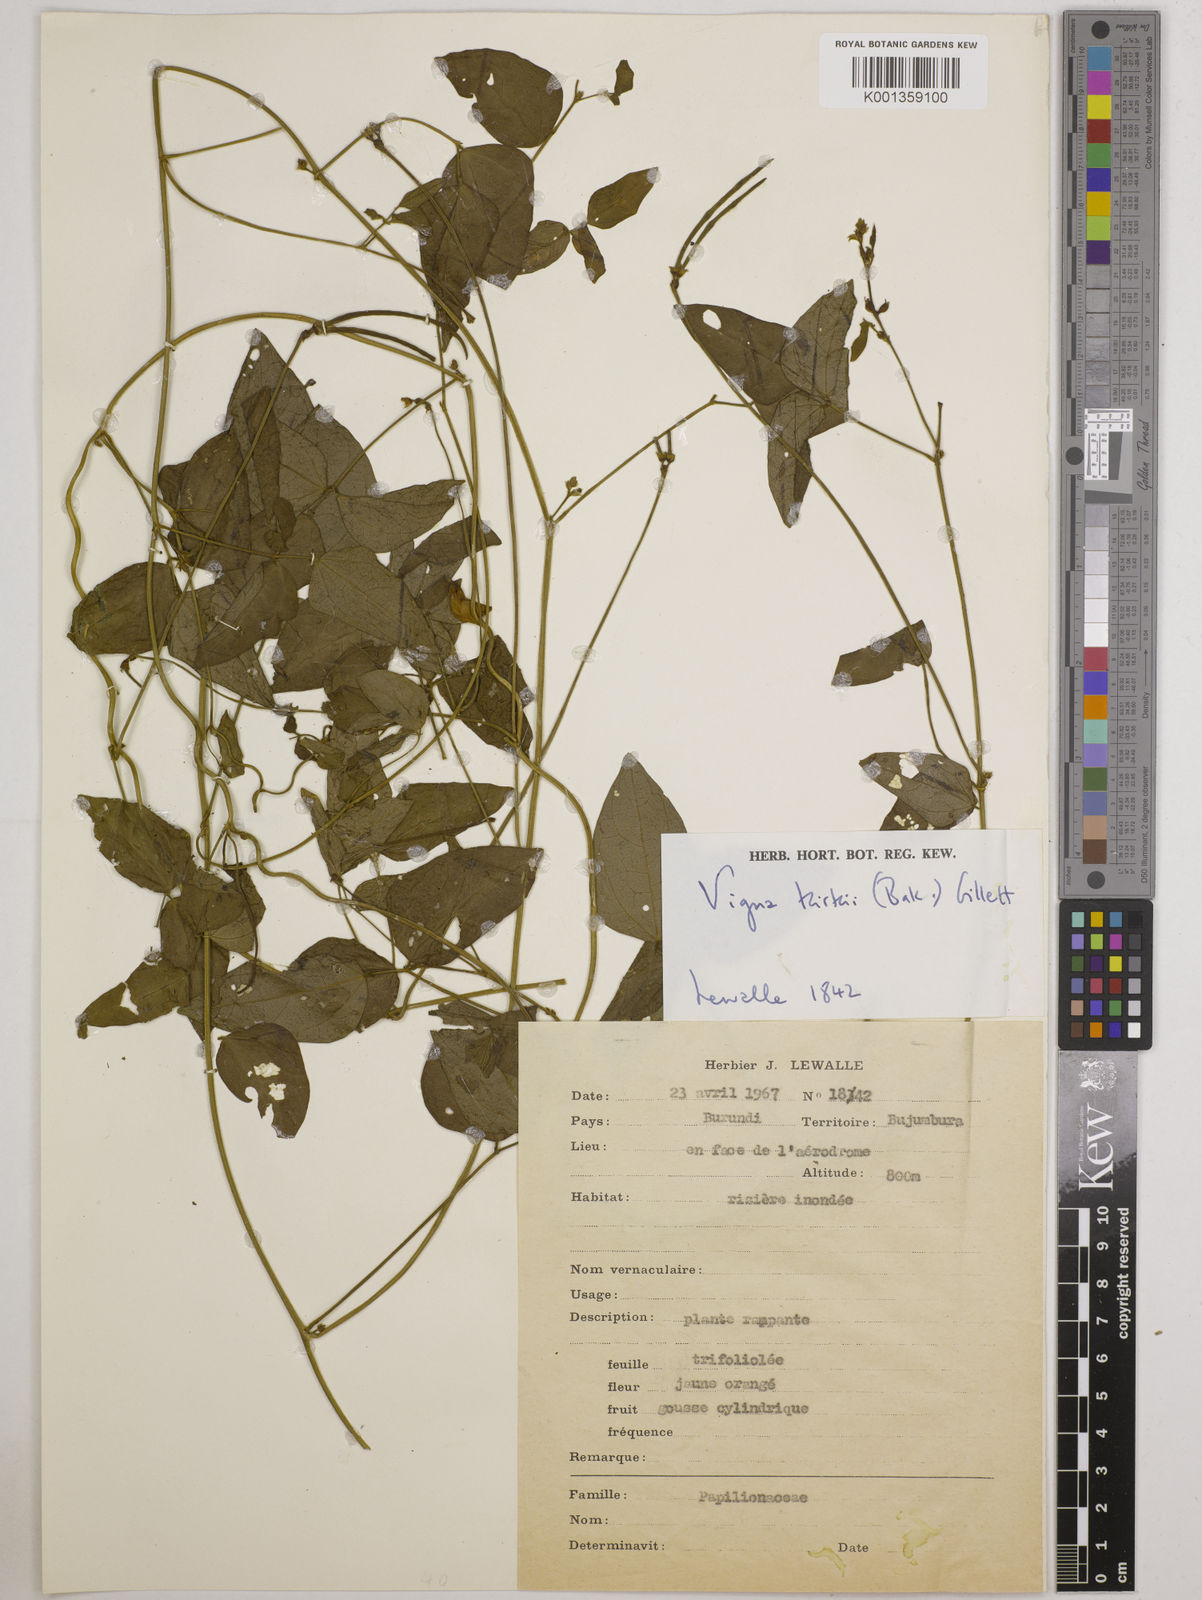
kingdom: Plantae
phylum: Tracheophyta
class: Magnoliopsida
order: Fabales
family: Fabaceae
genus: Vigna
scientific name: Vigna kirkii
